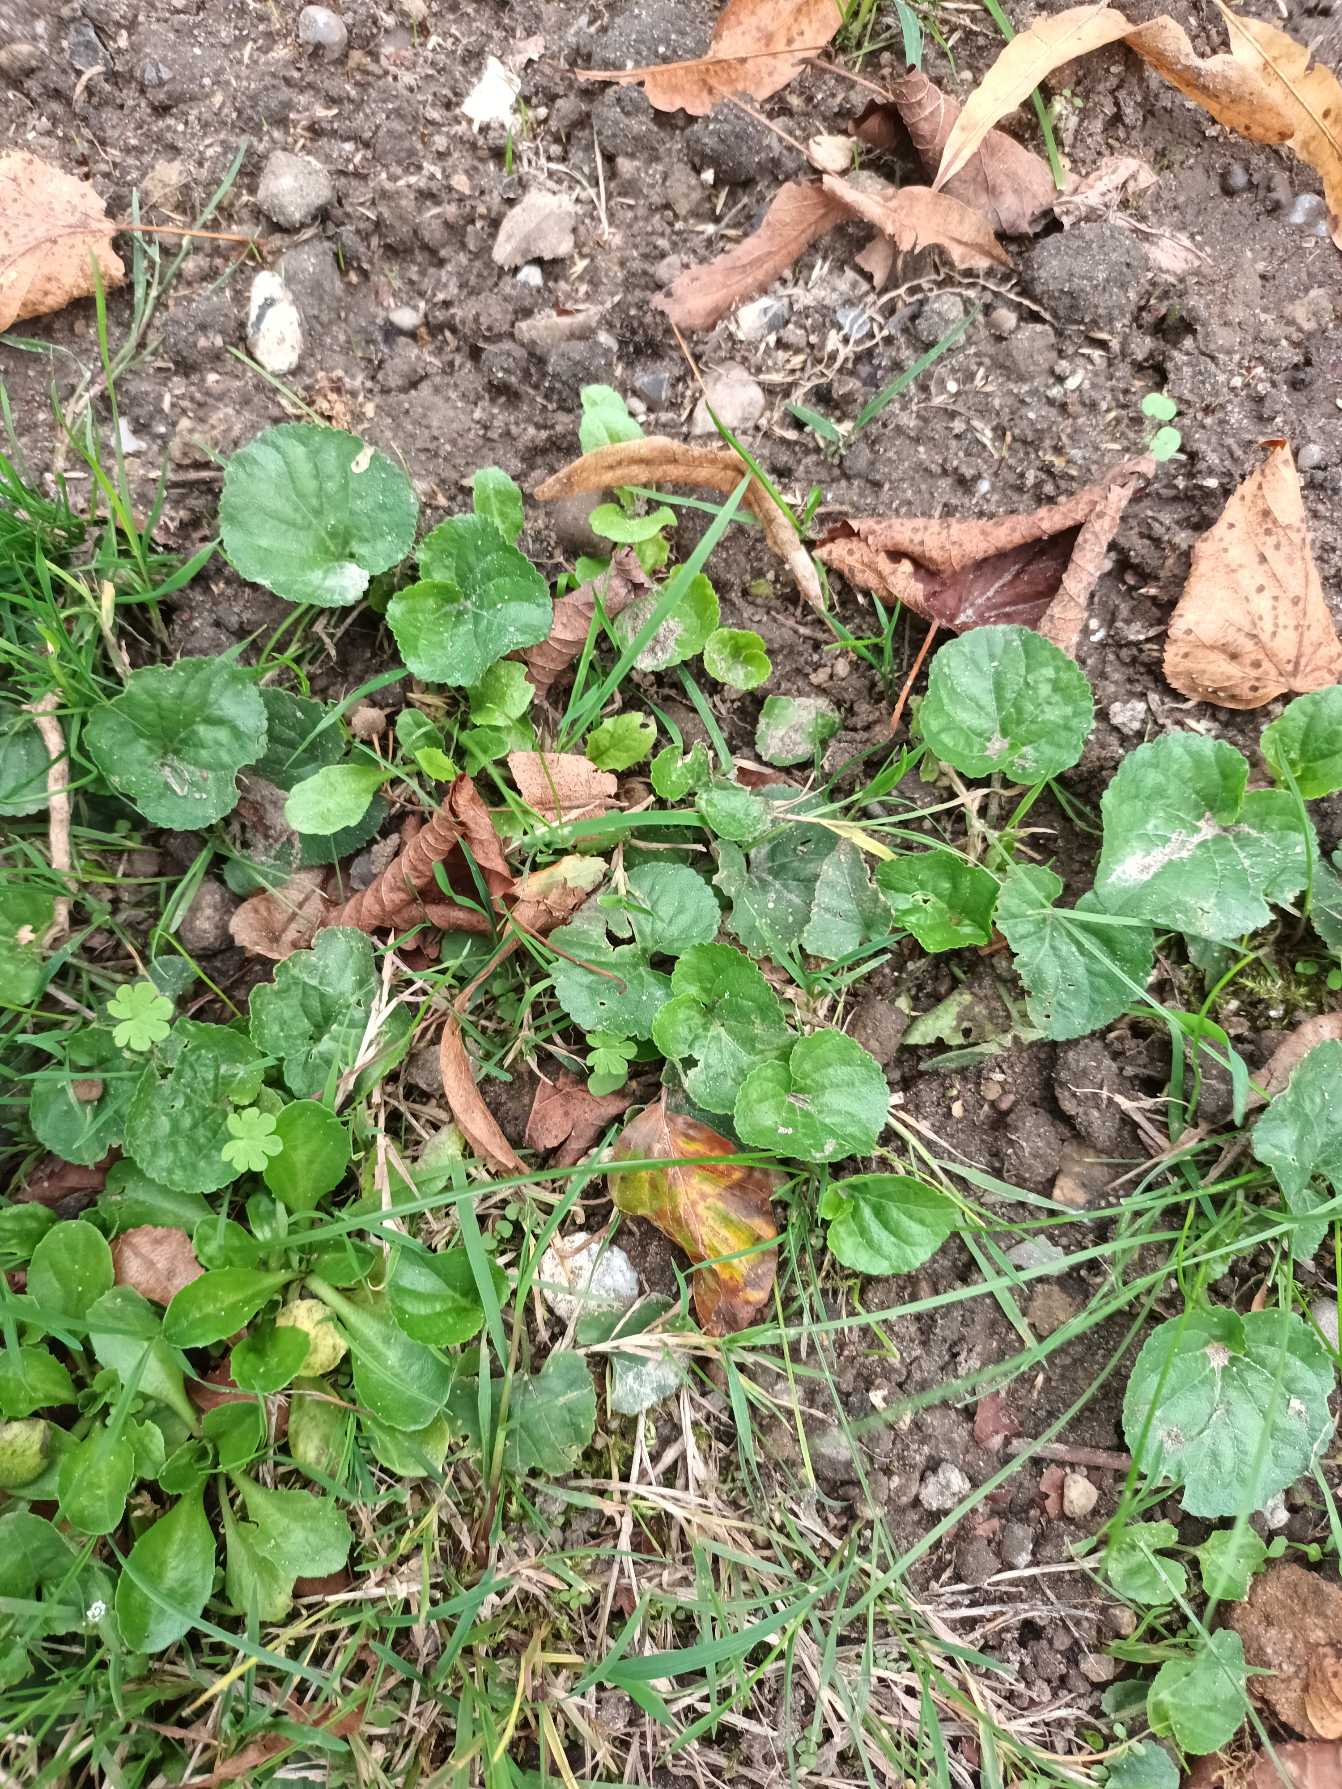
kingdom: Plantae
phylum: Tracheophyta
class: Magnoliopsida
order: Malpighiales
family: Violaceae
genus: Viola
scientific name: Viola odorata
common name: Marts-viol
